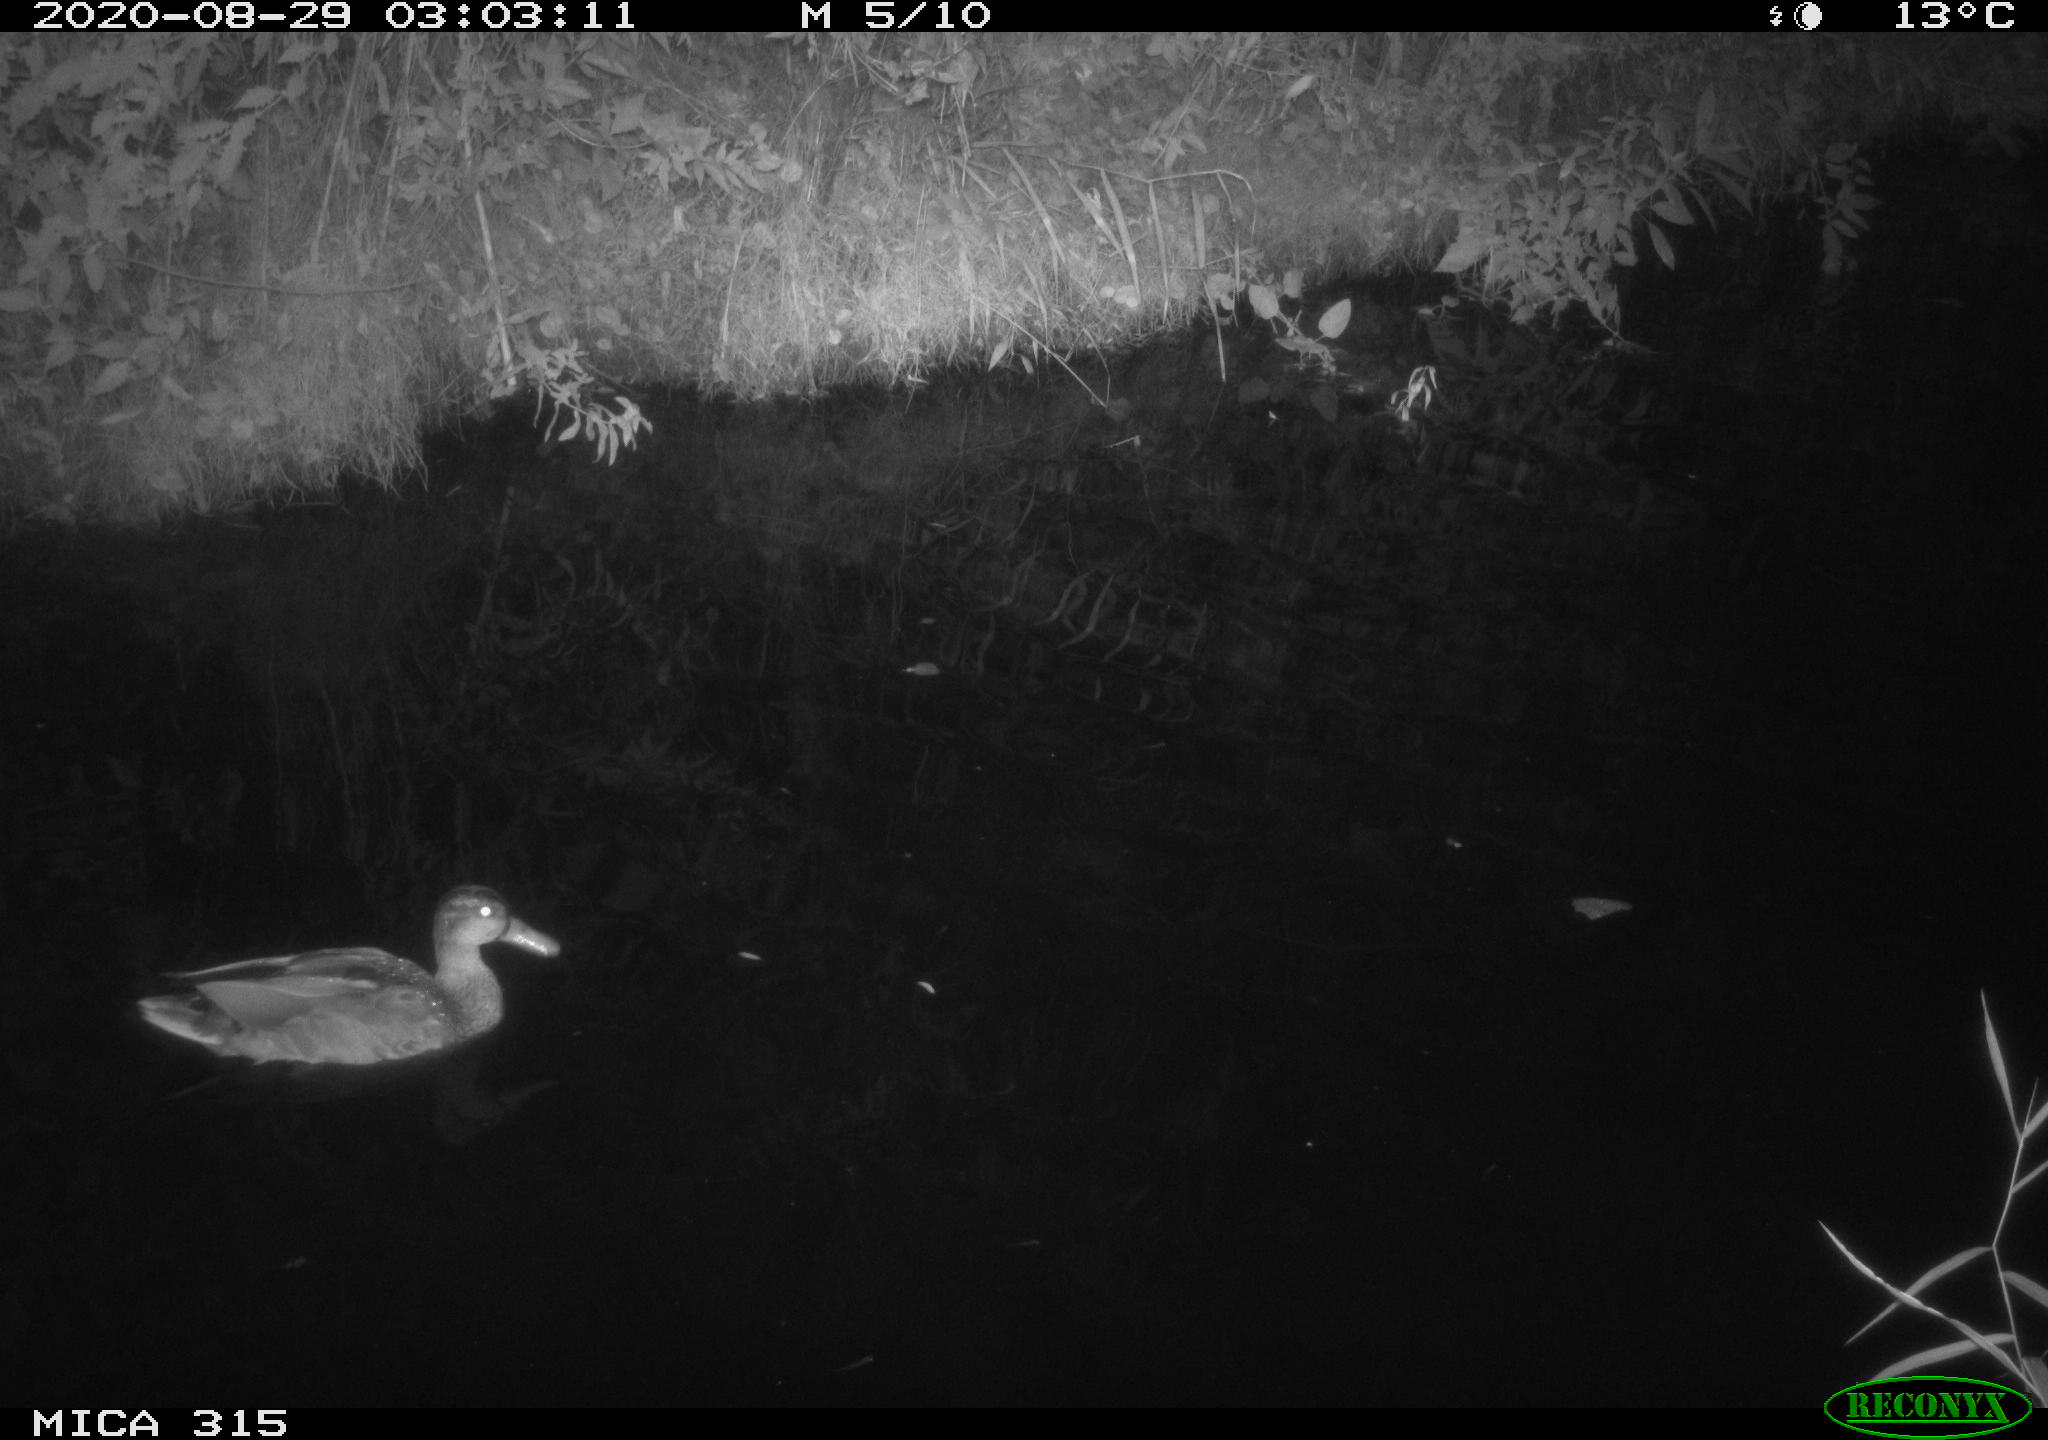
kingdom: Animalia
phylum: Chordata
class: Aves
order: Anseriformes
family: Anatidae
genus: Anas
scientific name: Anas platyrhynchos
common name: Mallard
